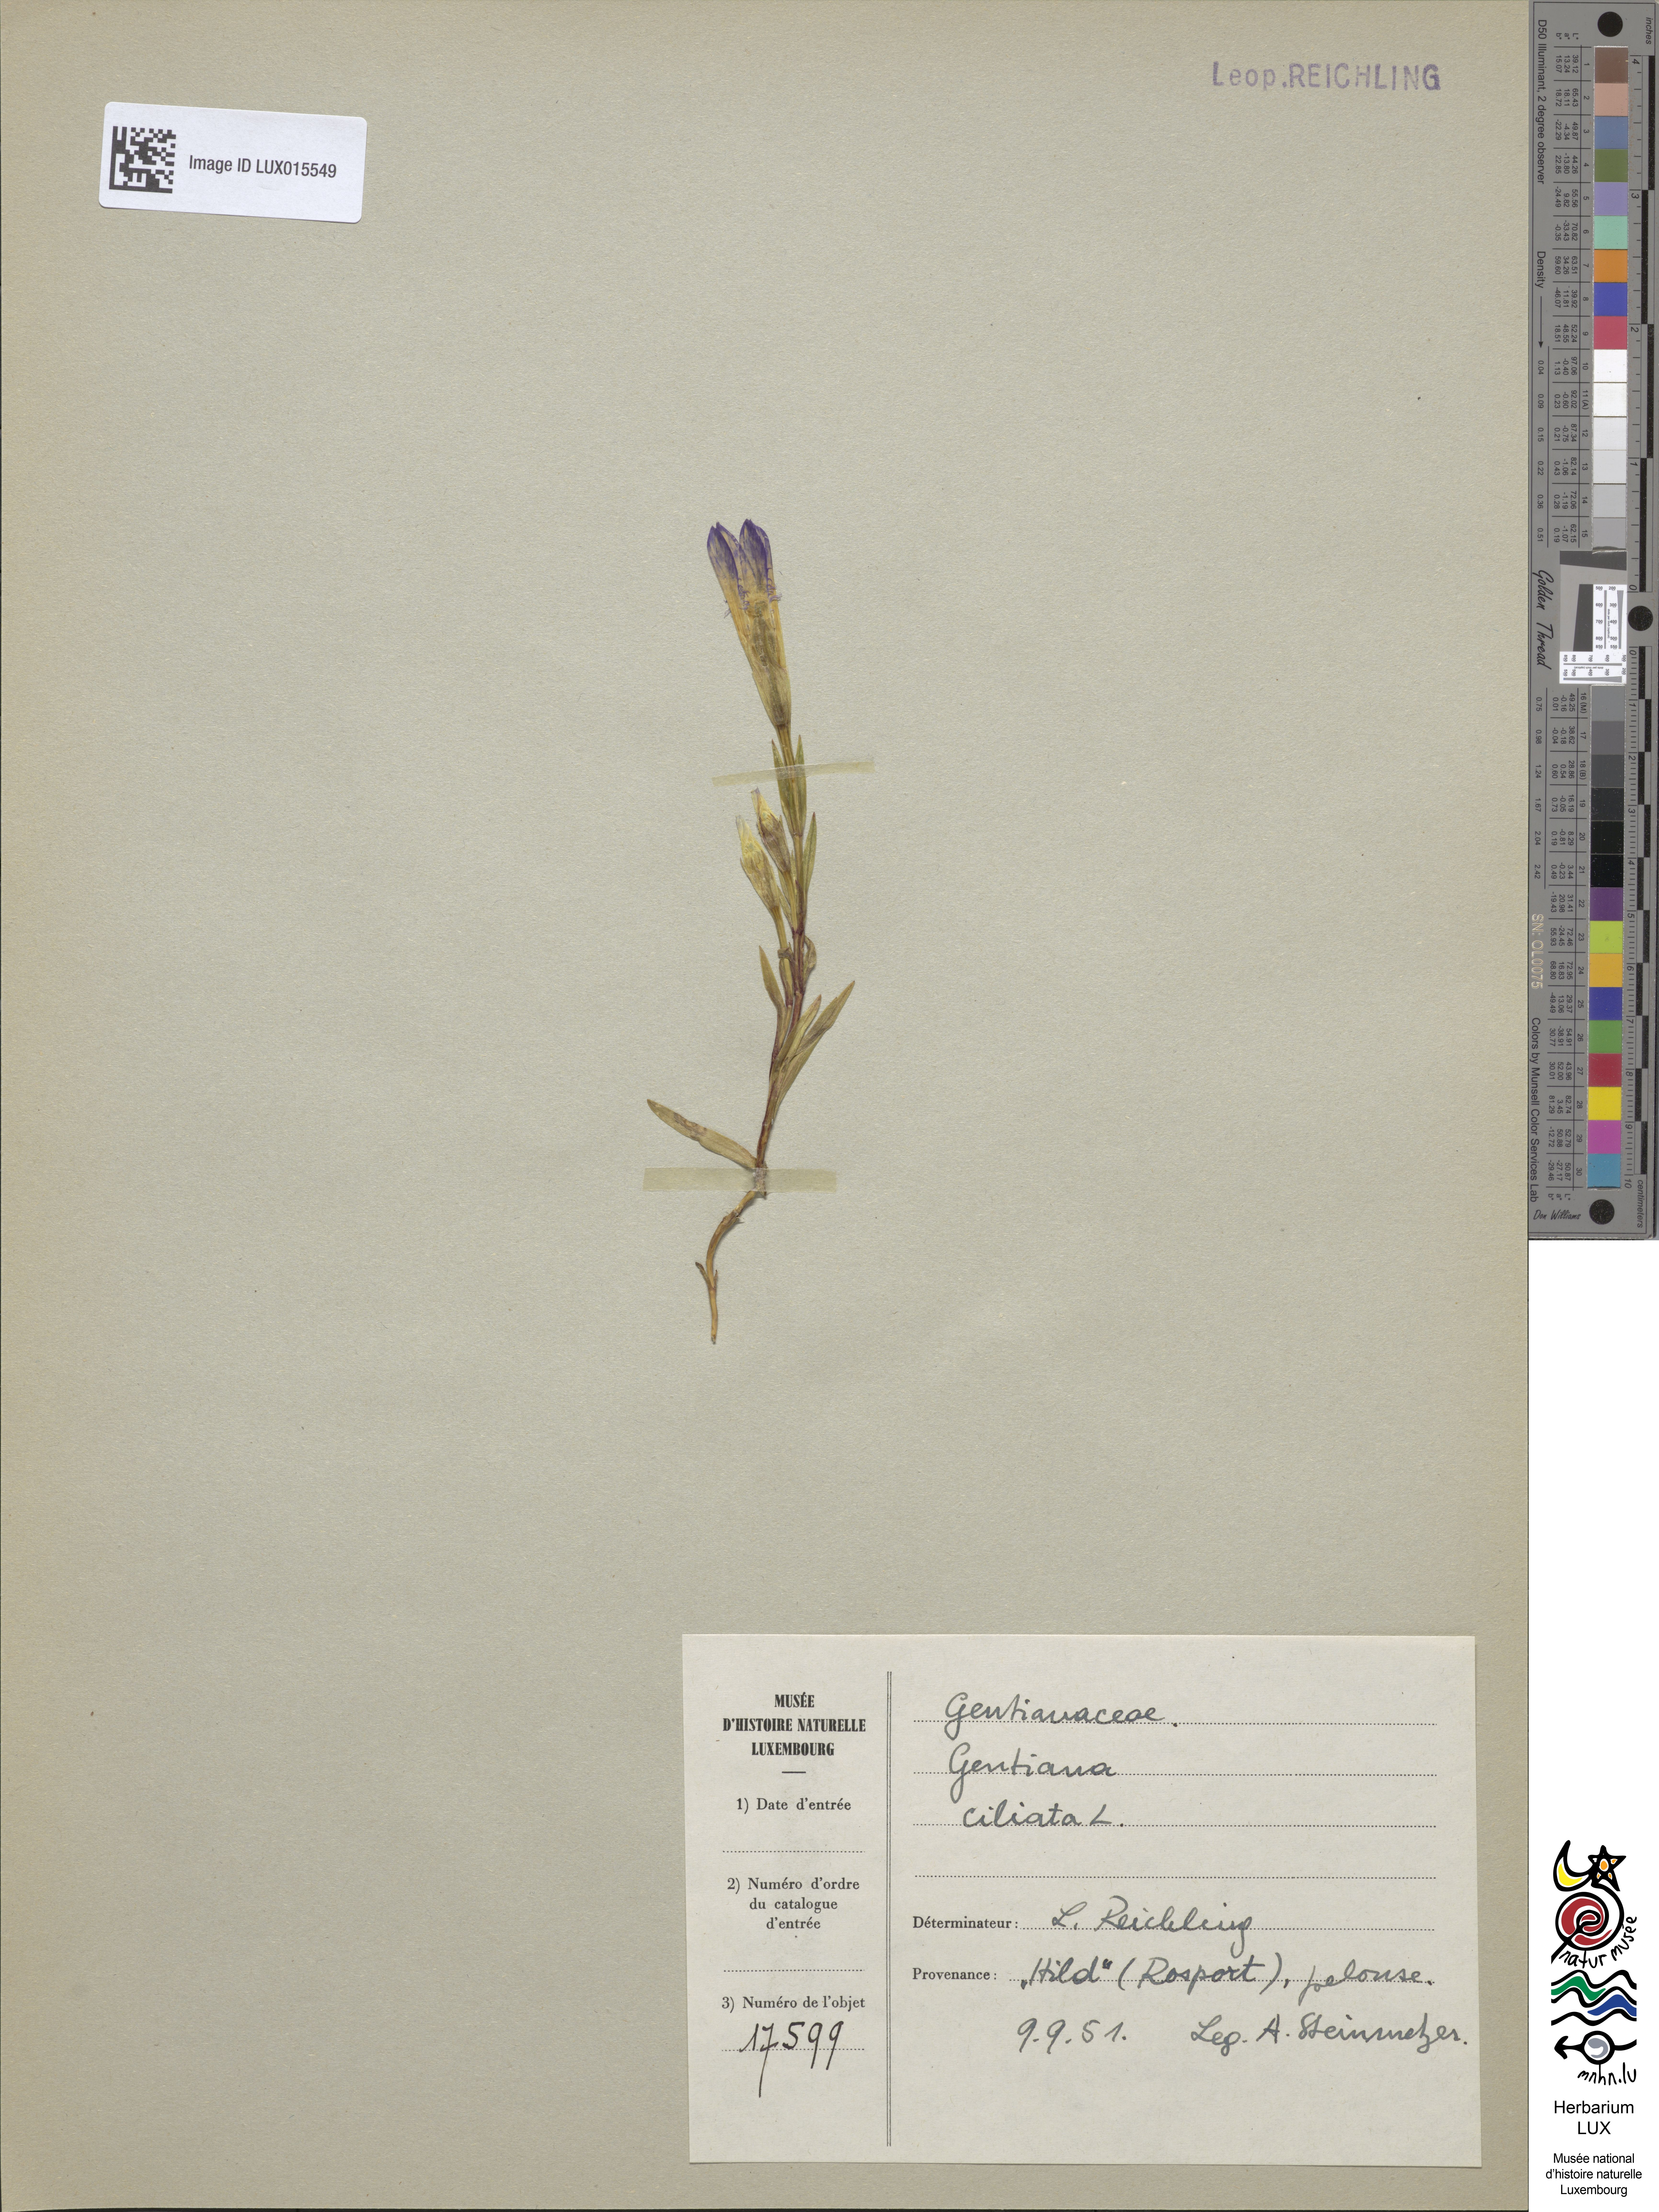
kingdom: Plantae
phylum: Tracheophyta
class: Magnoliopsida
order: Gentianales
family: Gentianaceae
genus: Gentianopsis
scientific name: Gentianopsis ciliata
